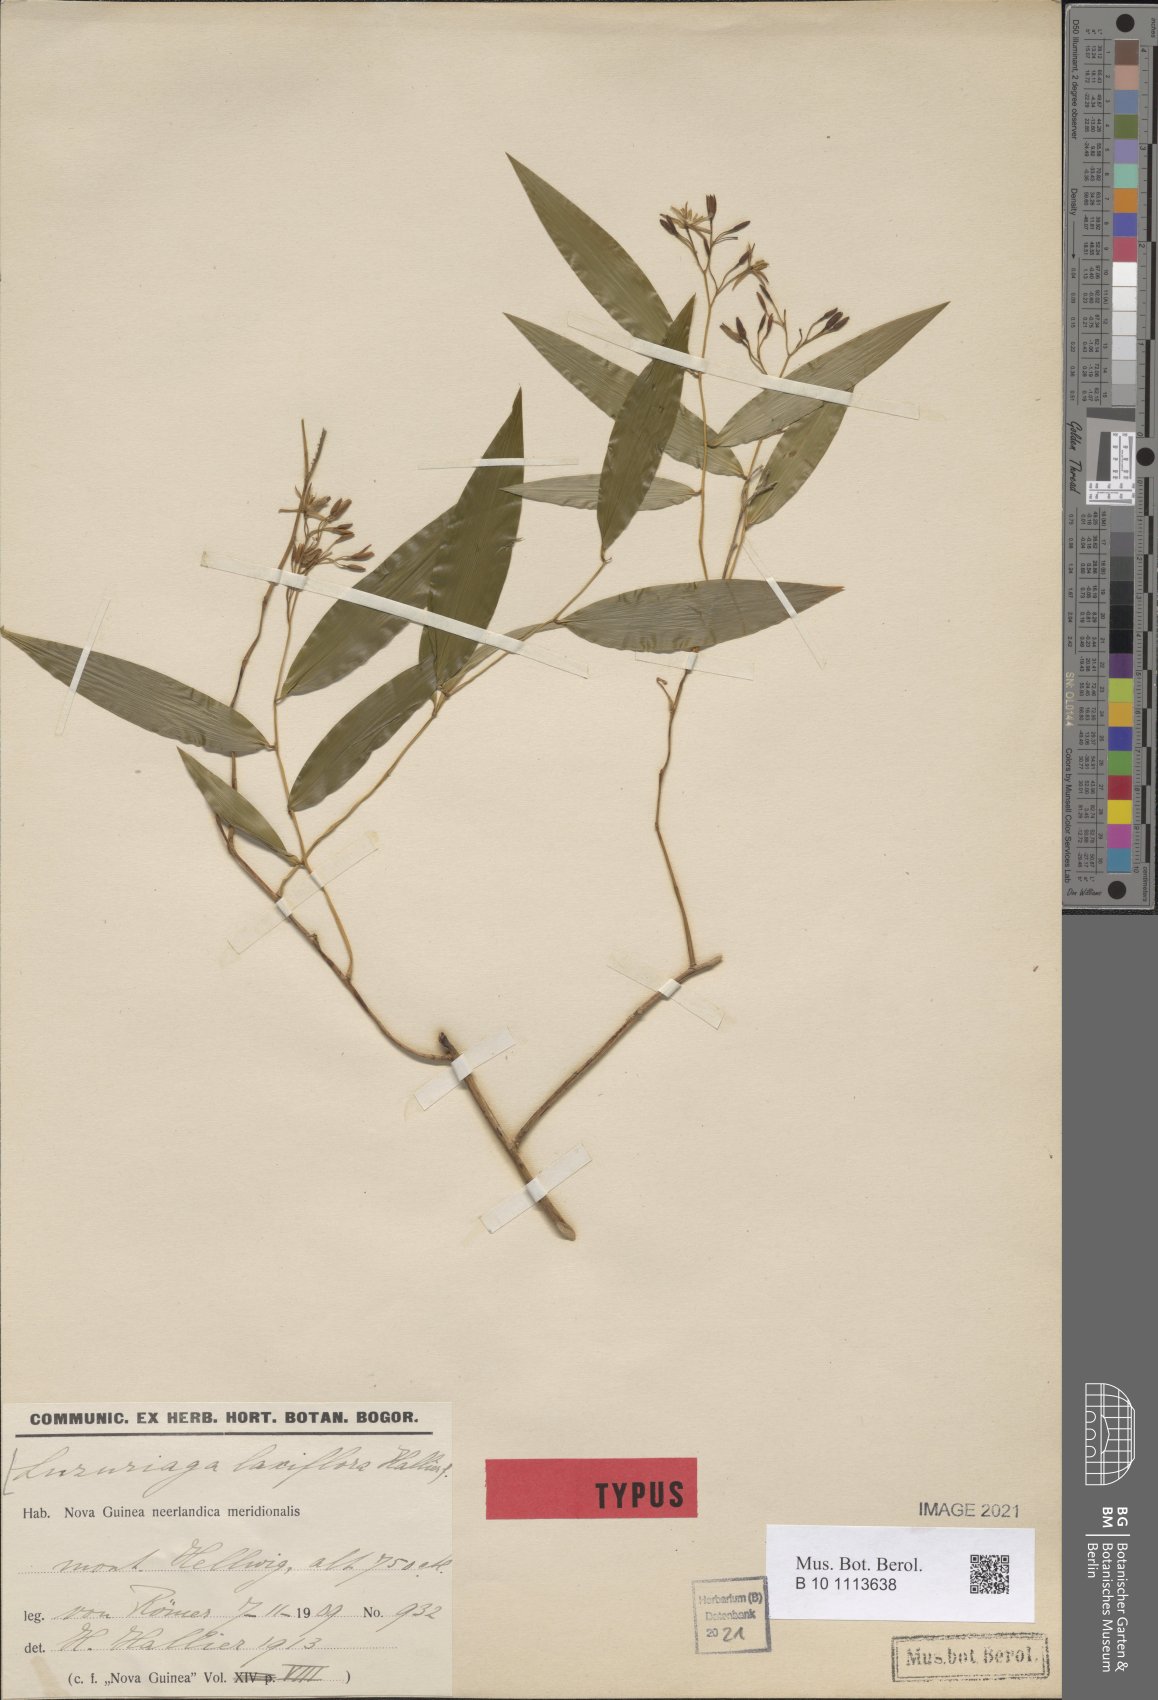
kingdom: Plantae
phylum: Tracheophyta
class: Liliopsida
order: Asparagales
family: Asphodelaceae
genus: Geitonoplesium
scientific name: Geitonoplesium cymosum
